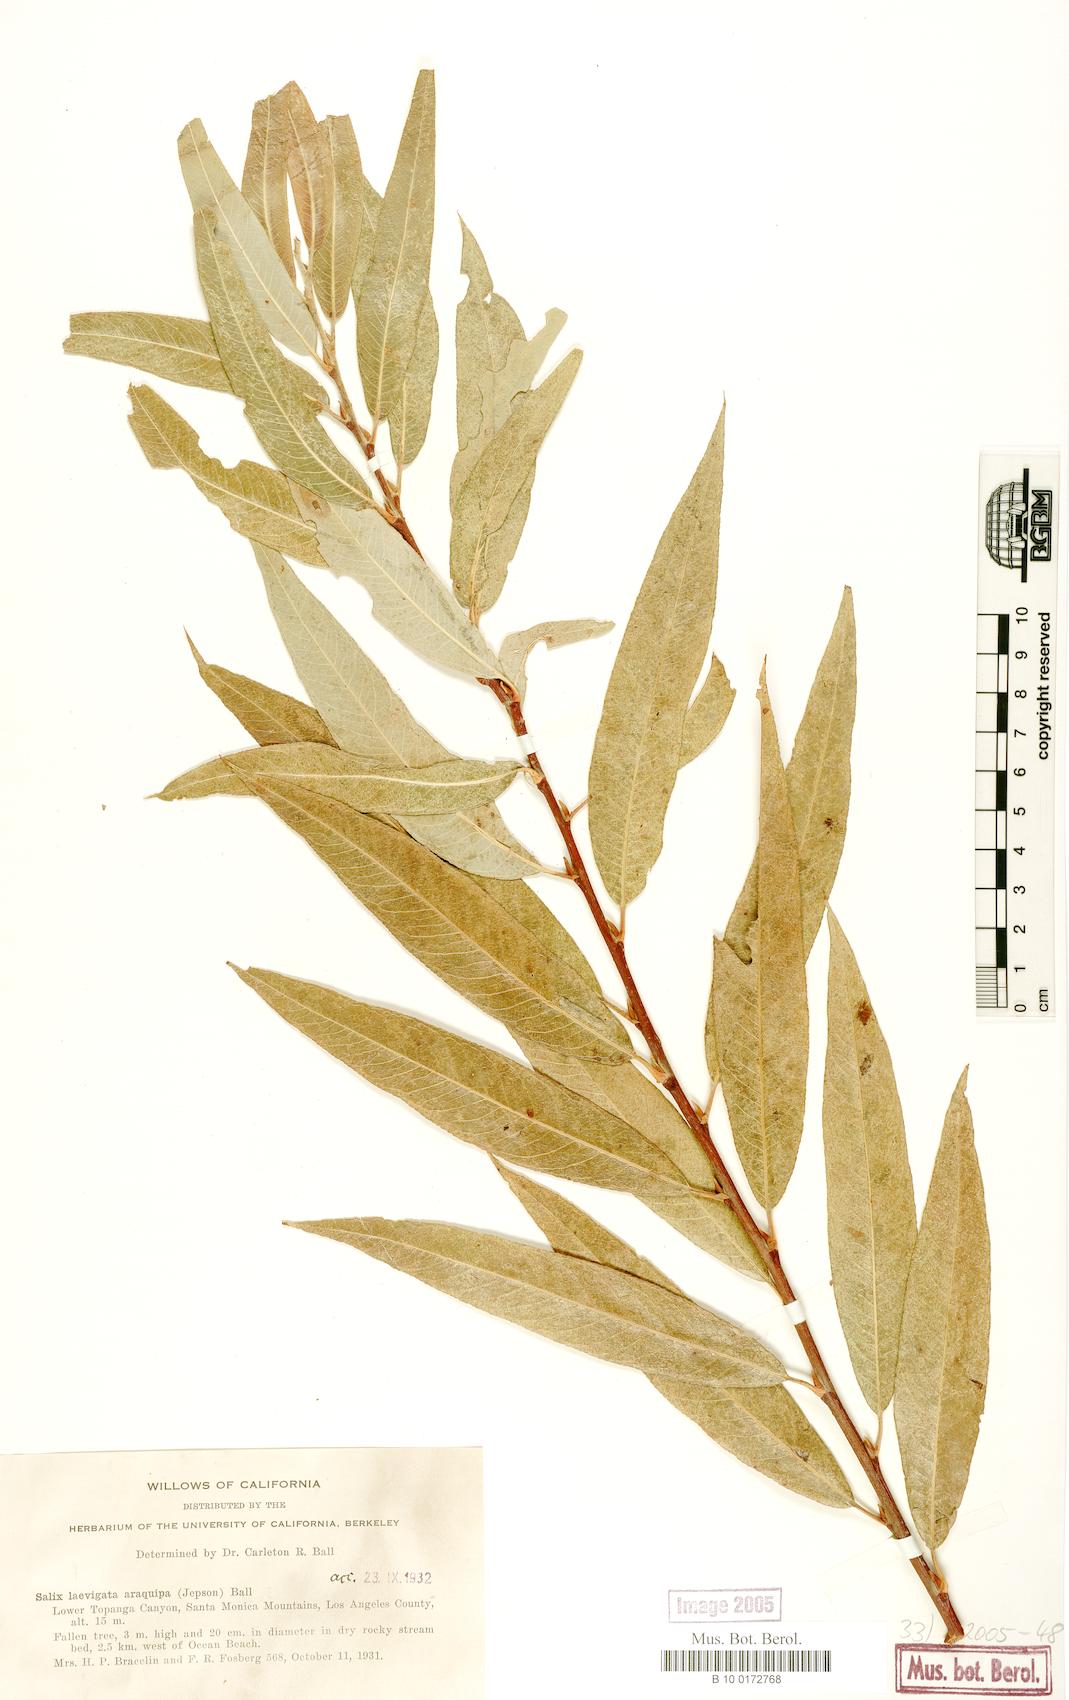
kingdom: Plantae
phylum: Tracheophyta
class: Magnoliopsida
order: Malpighiales
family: Salicaceae
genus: Salix
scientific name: Salix laevigata
